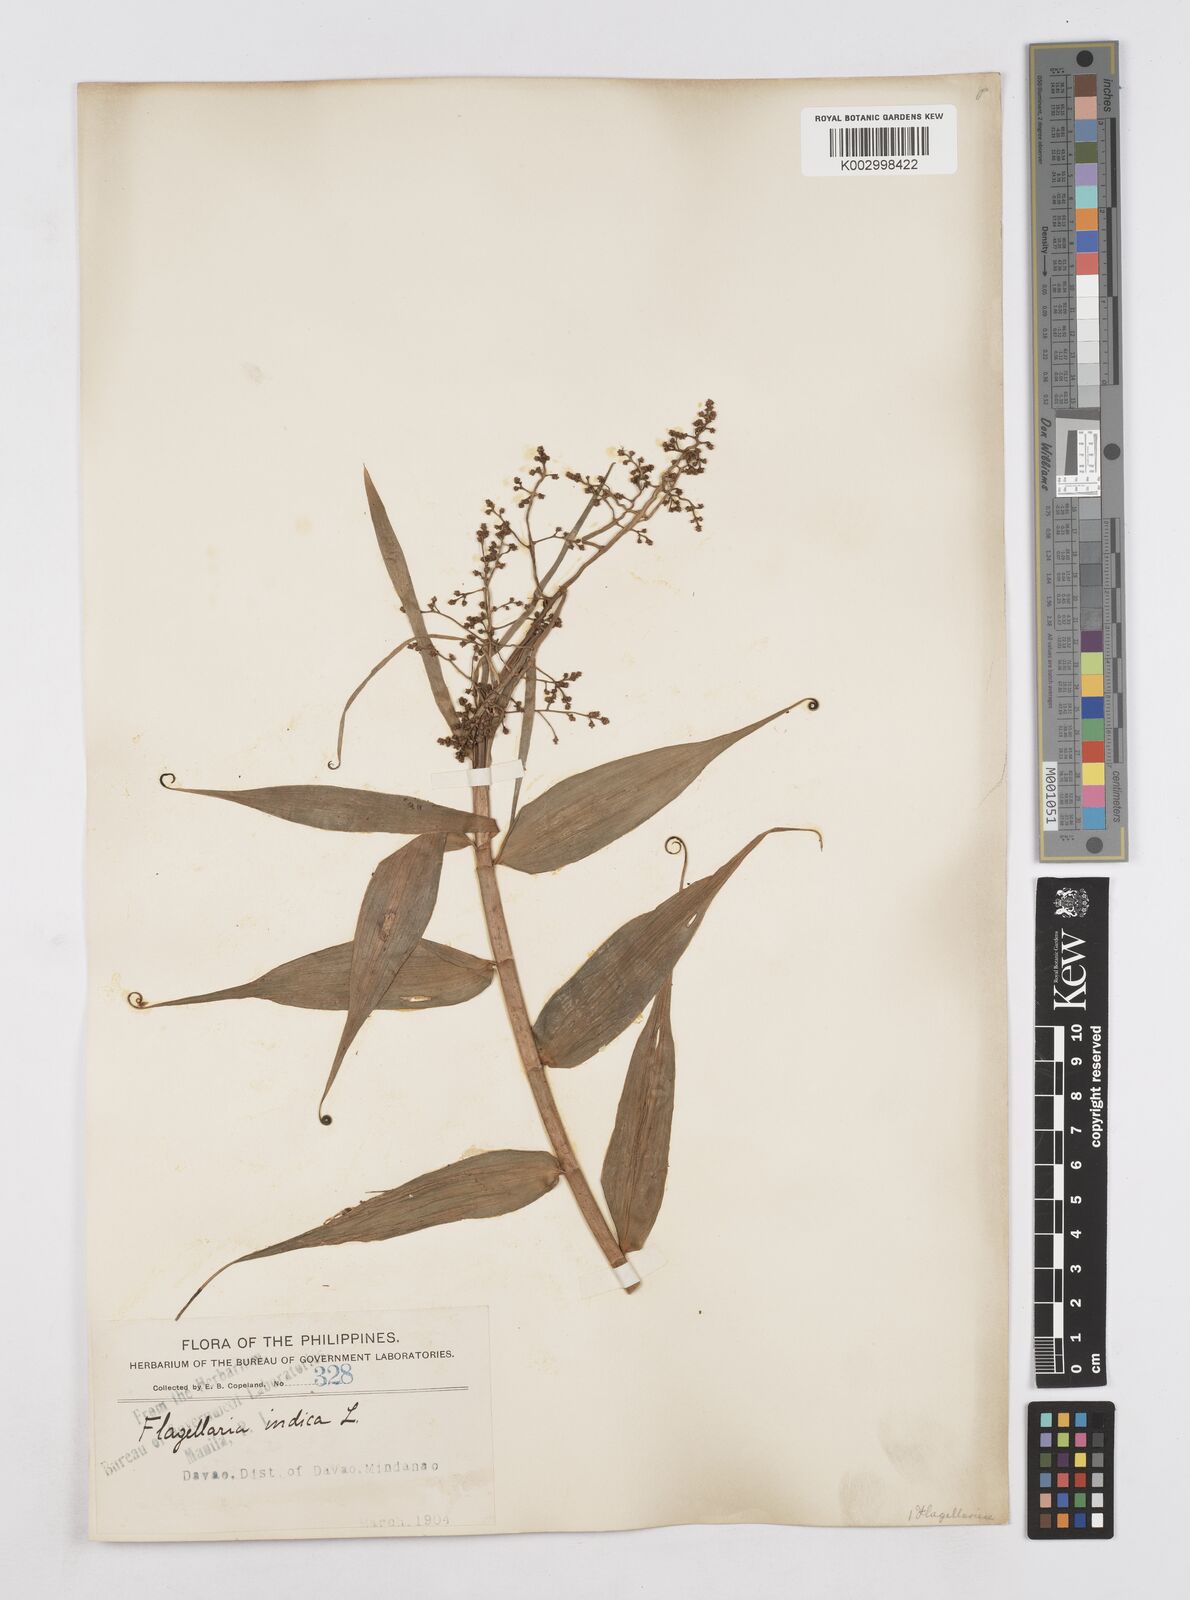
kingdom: Plantae
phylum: Tracheophyta
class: Liliopsida
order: Poales
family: Flagellariaceae
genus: Flagellaria
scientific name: Flagellaria indica
